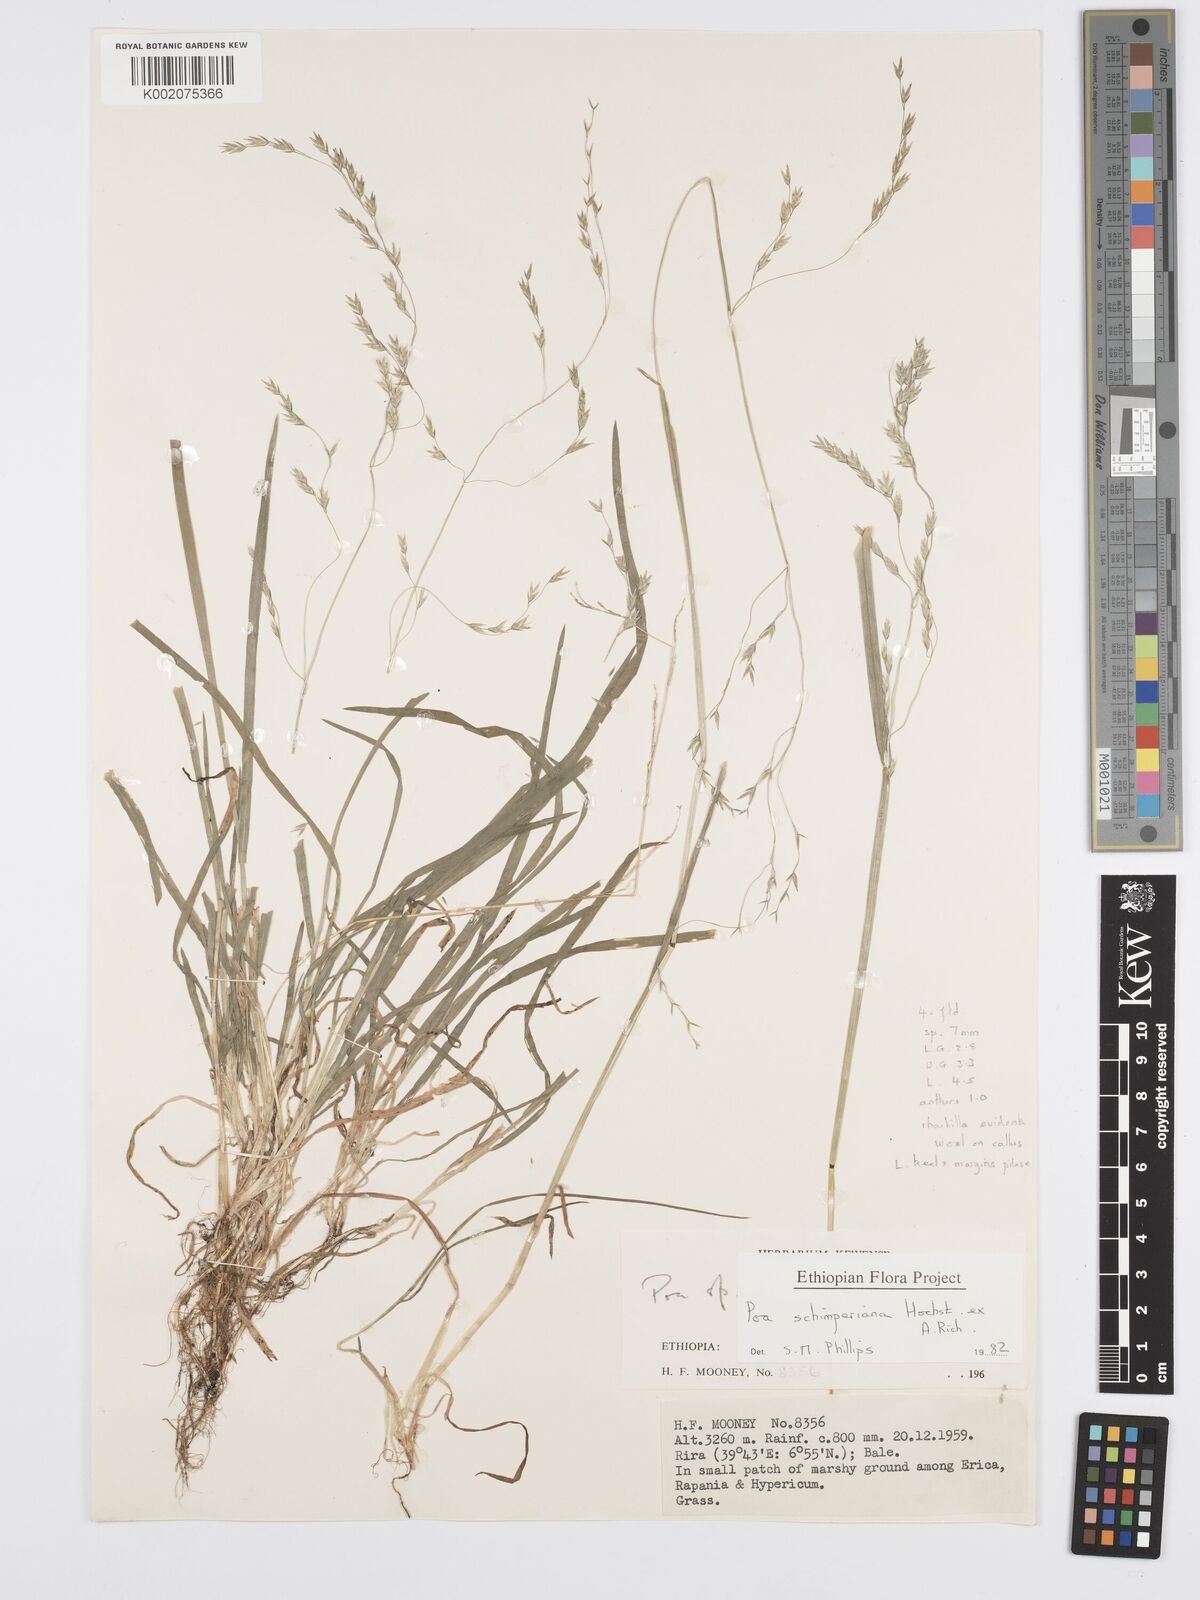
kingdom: Plantae
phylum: Tracheophyta
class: Liliopsida
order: Poales
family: Poaceae
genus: Poa
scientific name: Poa schimperiana
